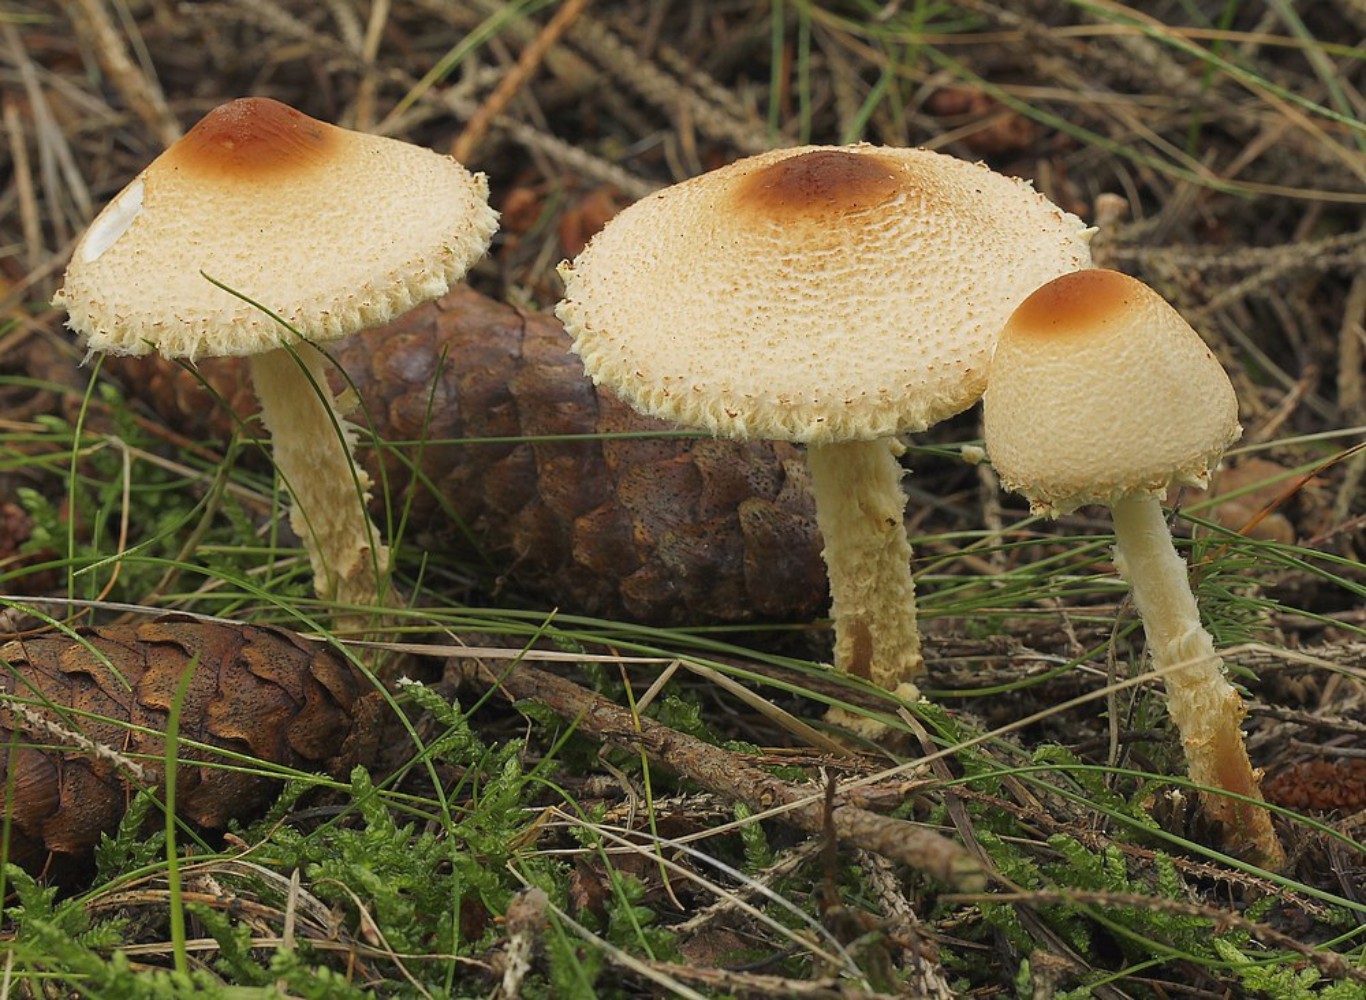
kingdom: Fungi
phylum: Basidiomycota
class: Agaricomycetes
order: Agaricales
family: Agaricaceae
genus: Lepiota
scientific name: Lepiota magnispora
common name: gulfnugget parasolhat
